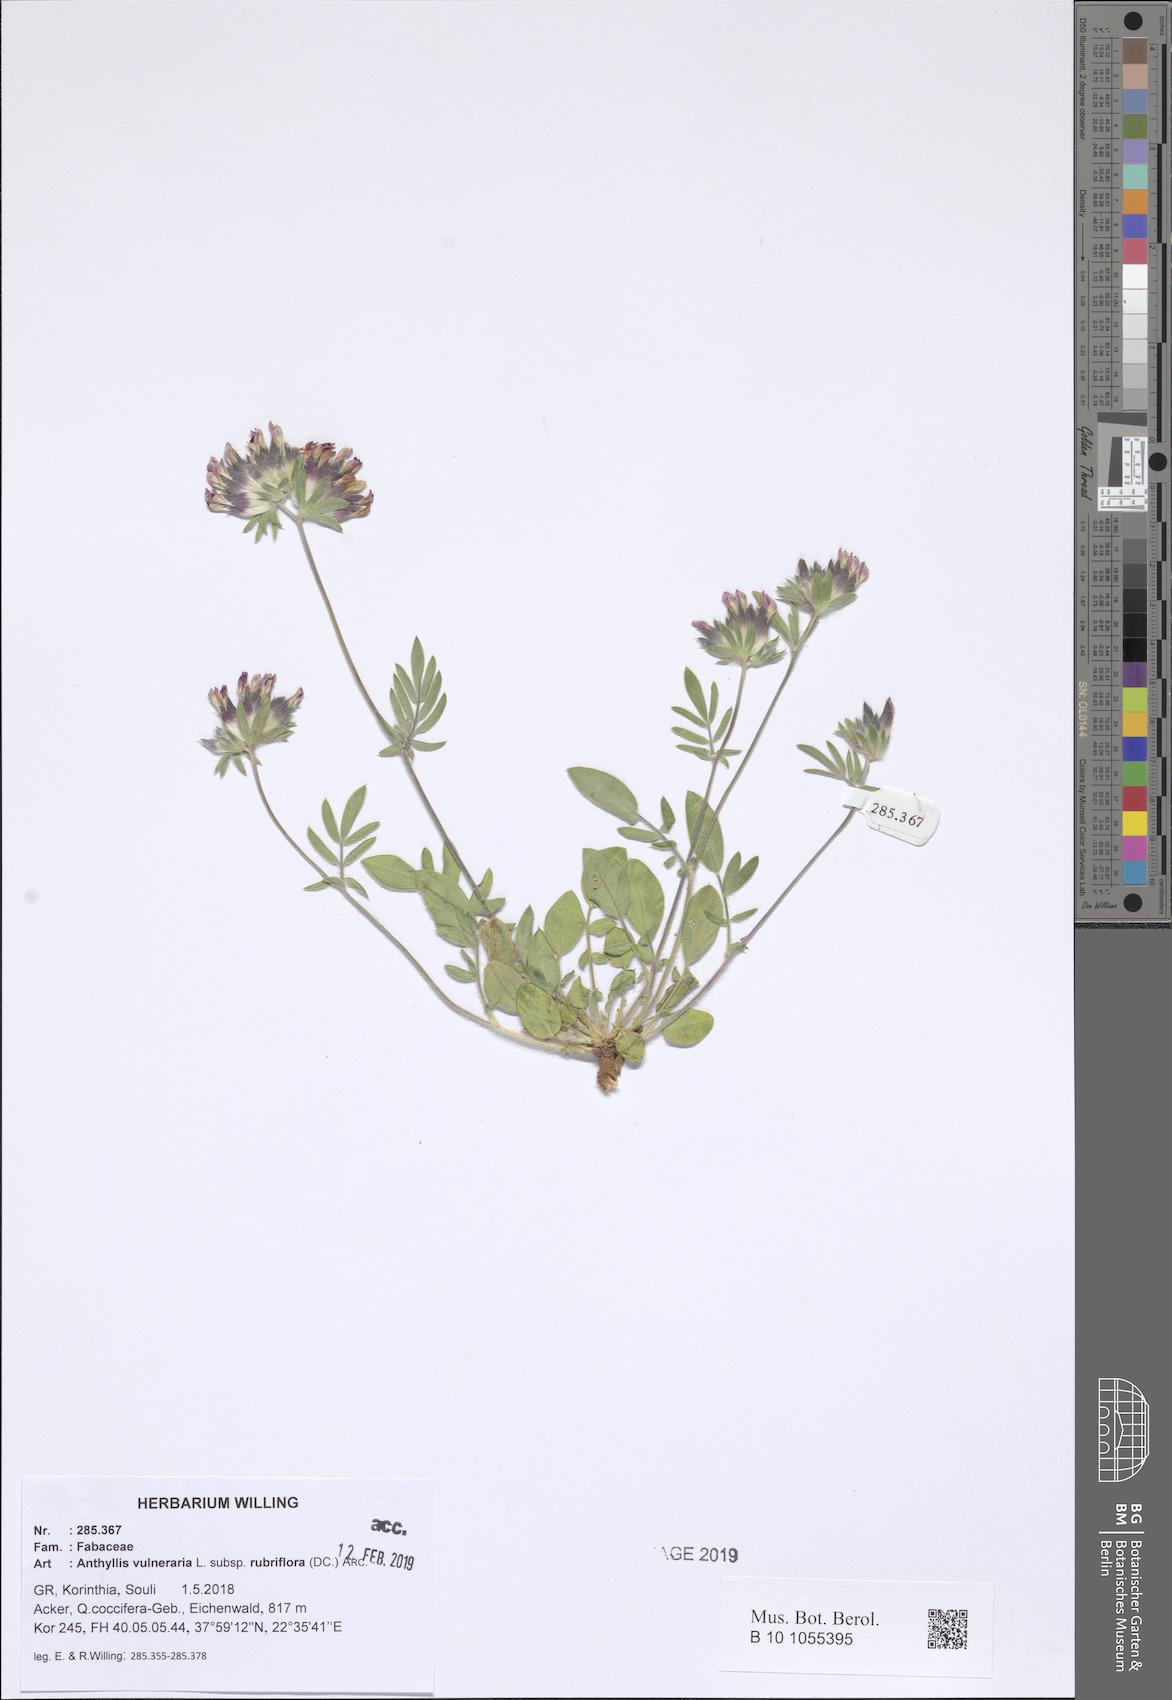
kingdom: Plantae
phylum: Tracheophyta
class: Magnoliopsida
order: Fabales
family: Fabaceae
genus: Anthyllis
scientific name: Anthyllis vulneraria
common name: Kidney vetch
